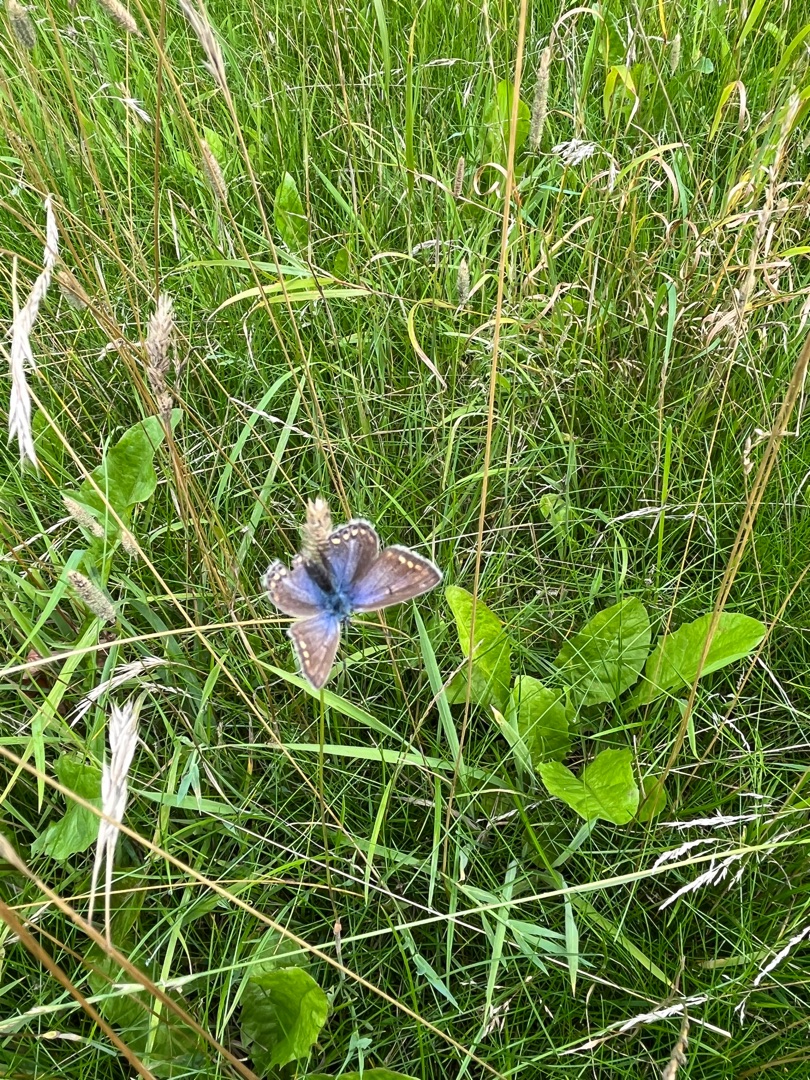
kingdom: Animalia
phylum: Arthropoda
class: Insecta
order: Lepidoptera
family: Lycaenidae
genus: Polyommatus
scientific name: Polyommatus icarus
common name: Almindelig blåfugl
